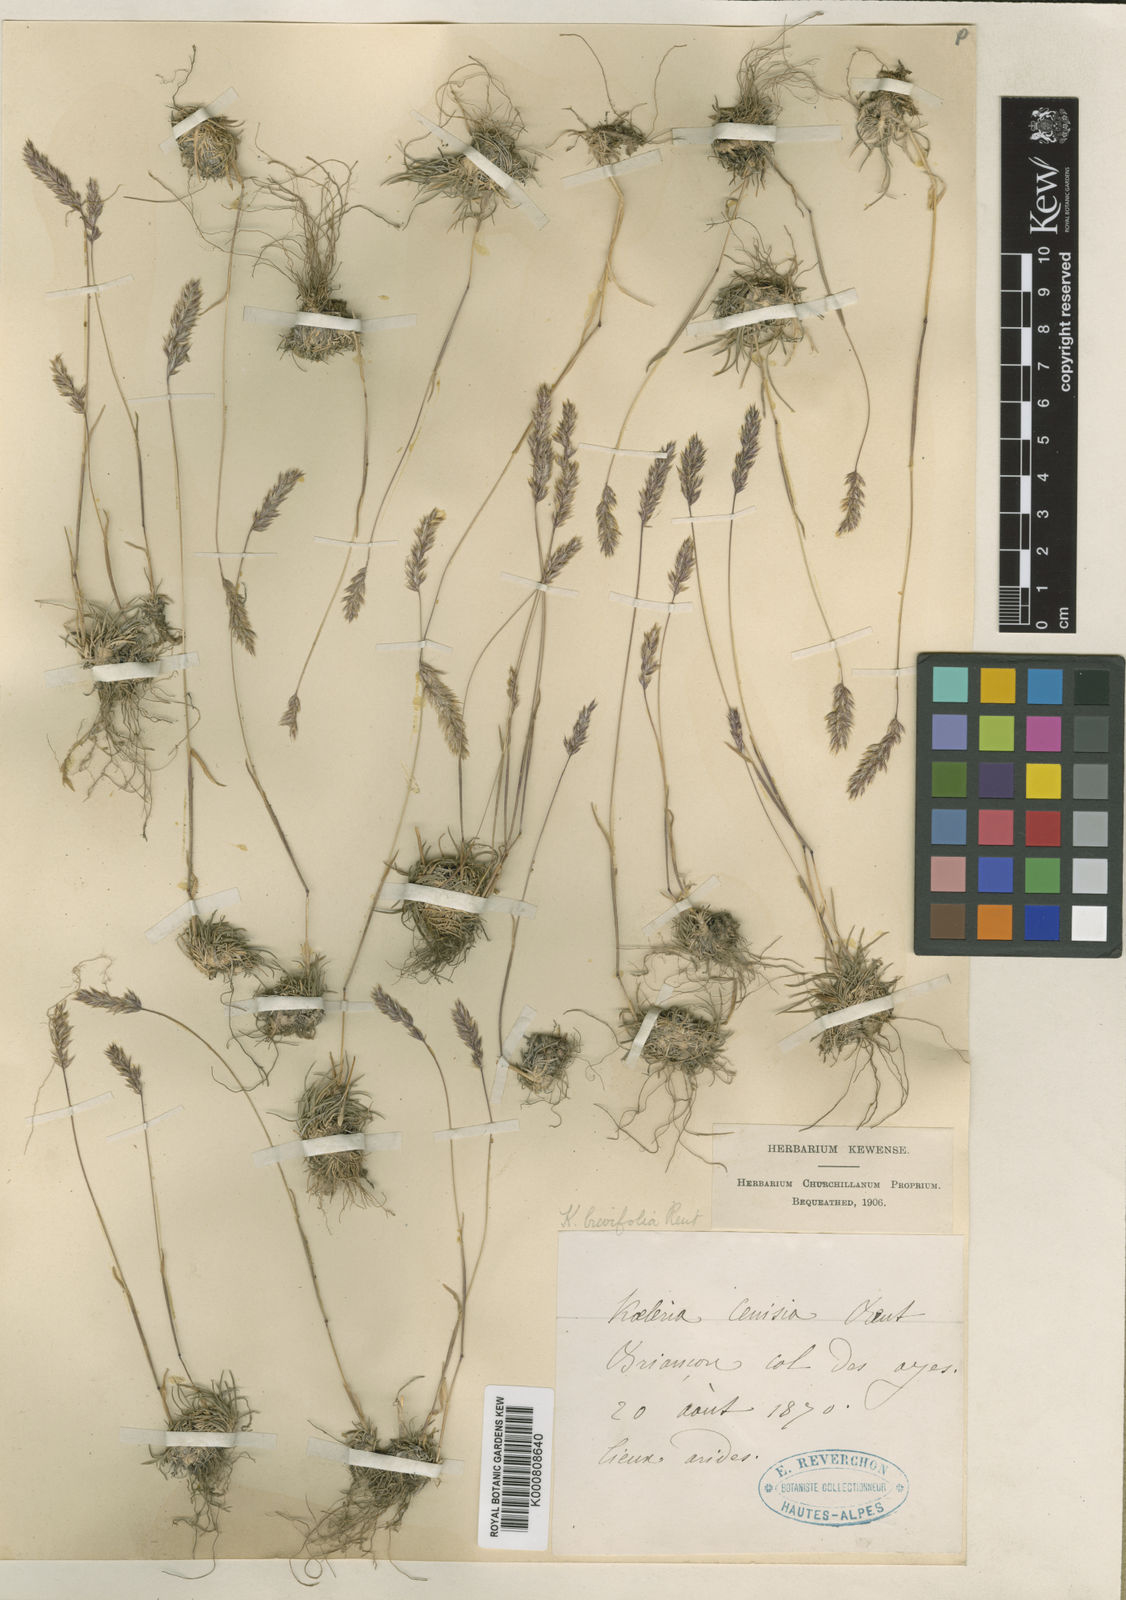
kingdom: Plantae
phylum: Tracheophyta
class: Liliopsida
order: Poales
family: Poaceae
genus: Koeleria
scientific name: Koeleria
